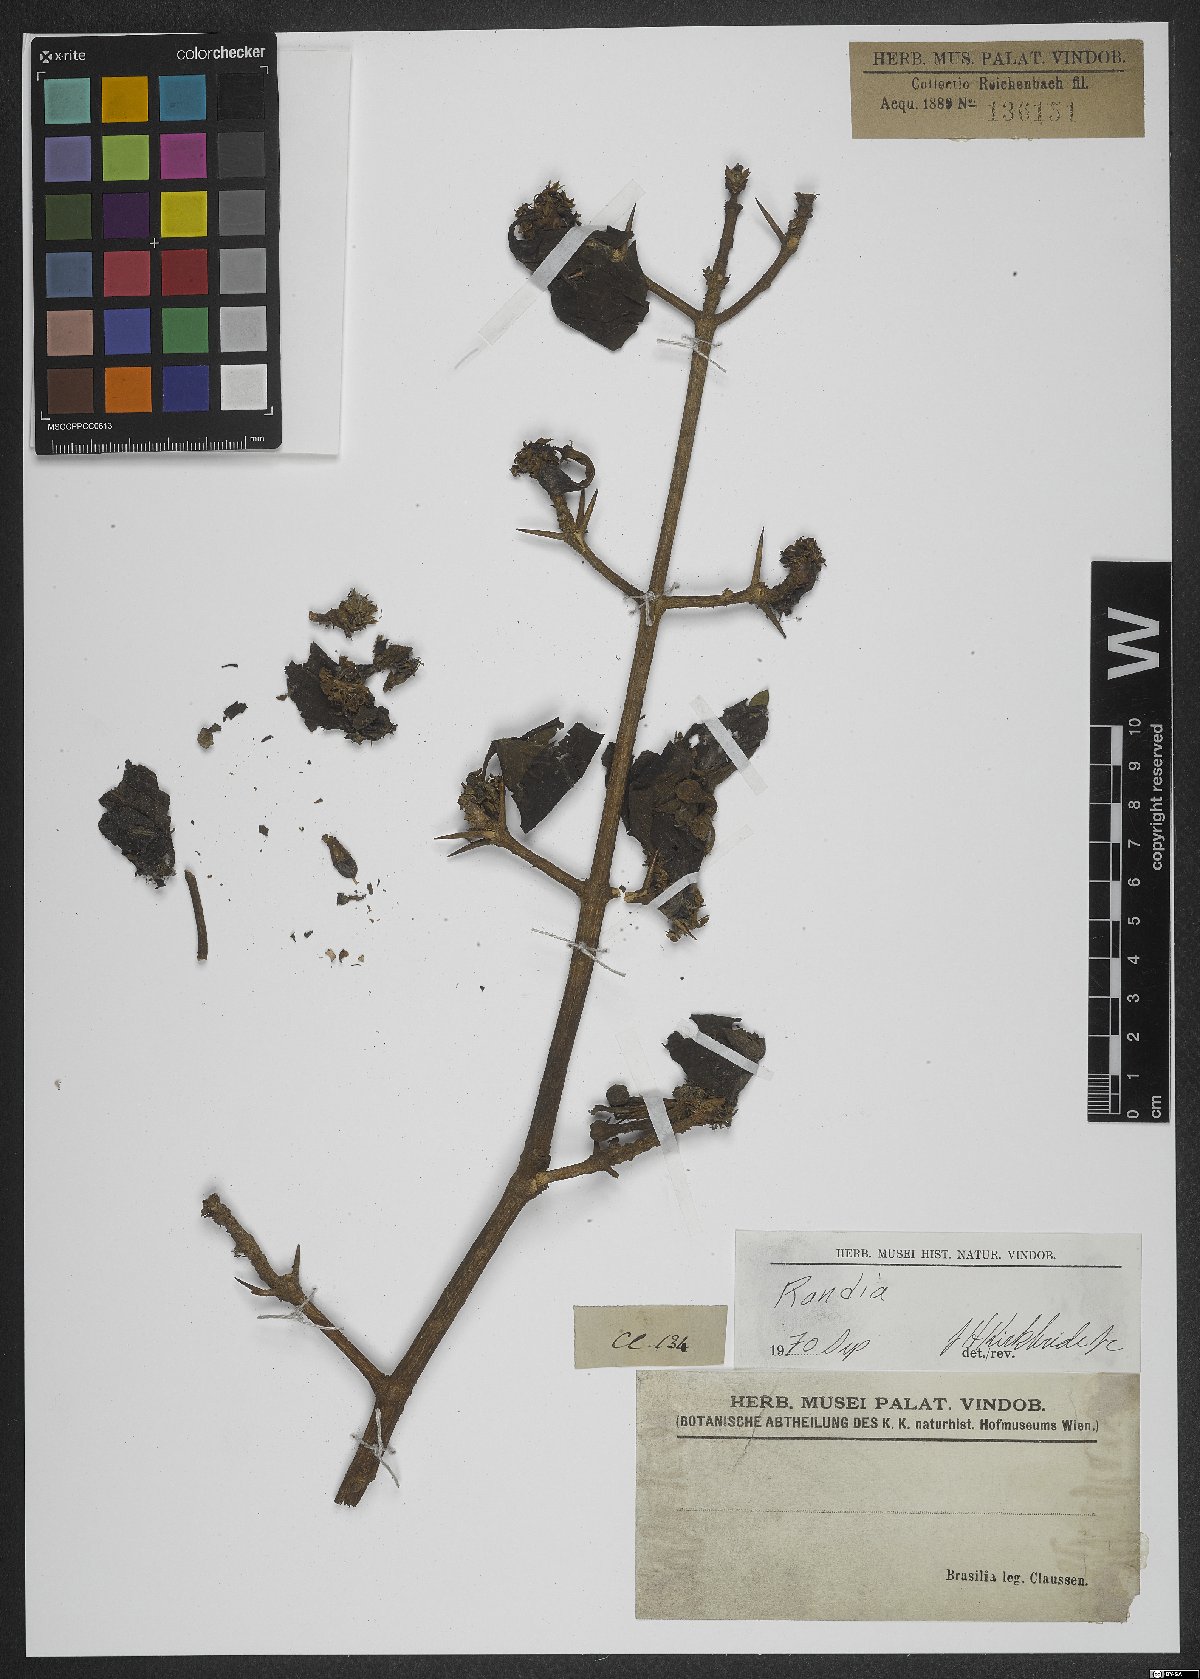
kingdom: Plantae
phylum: Tracheophyta
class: Magnoliopsida
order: Gentianales
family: Rubiaceae
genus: Randia
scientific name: Randia
